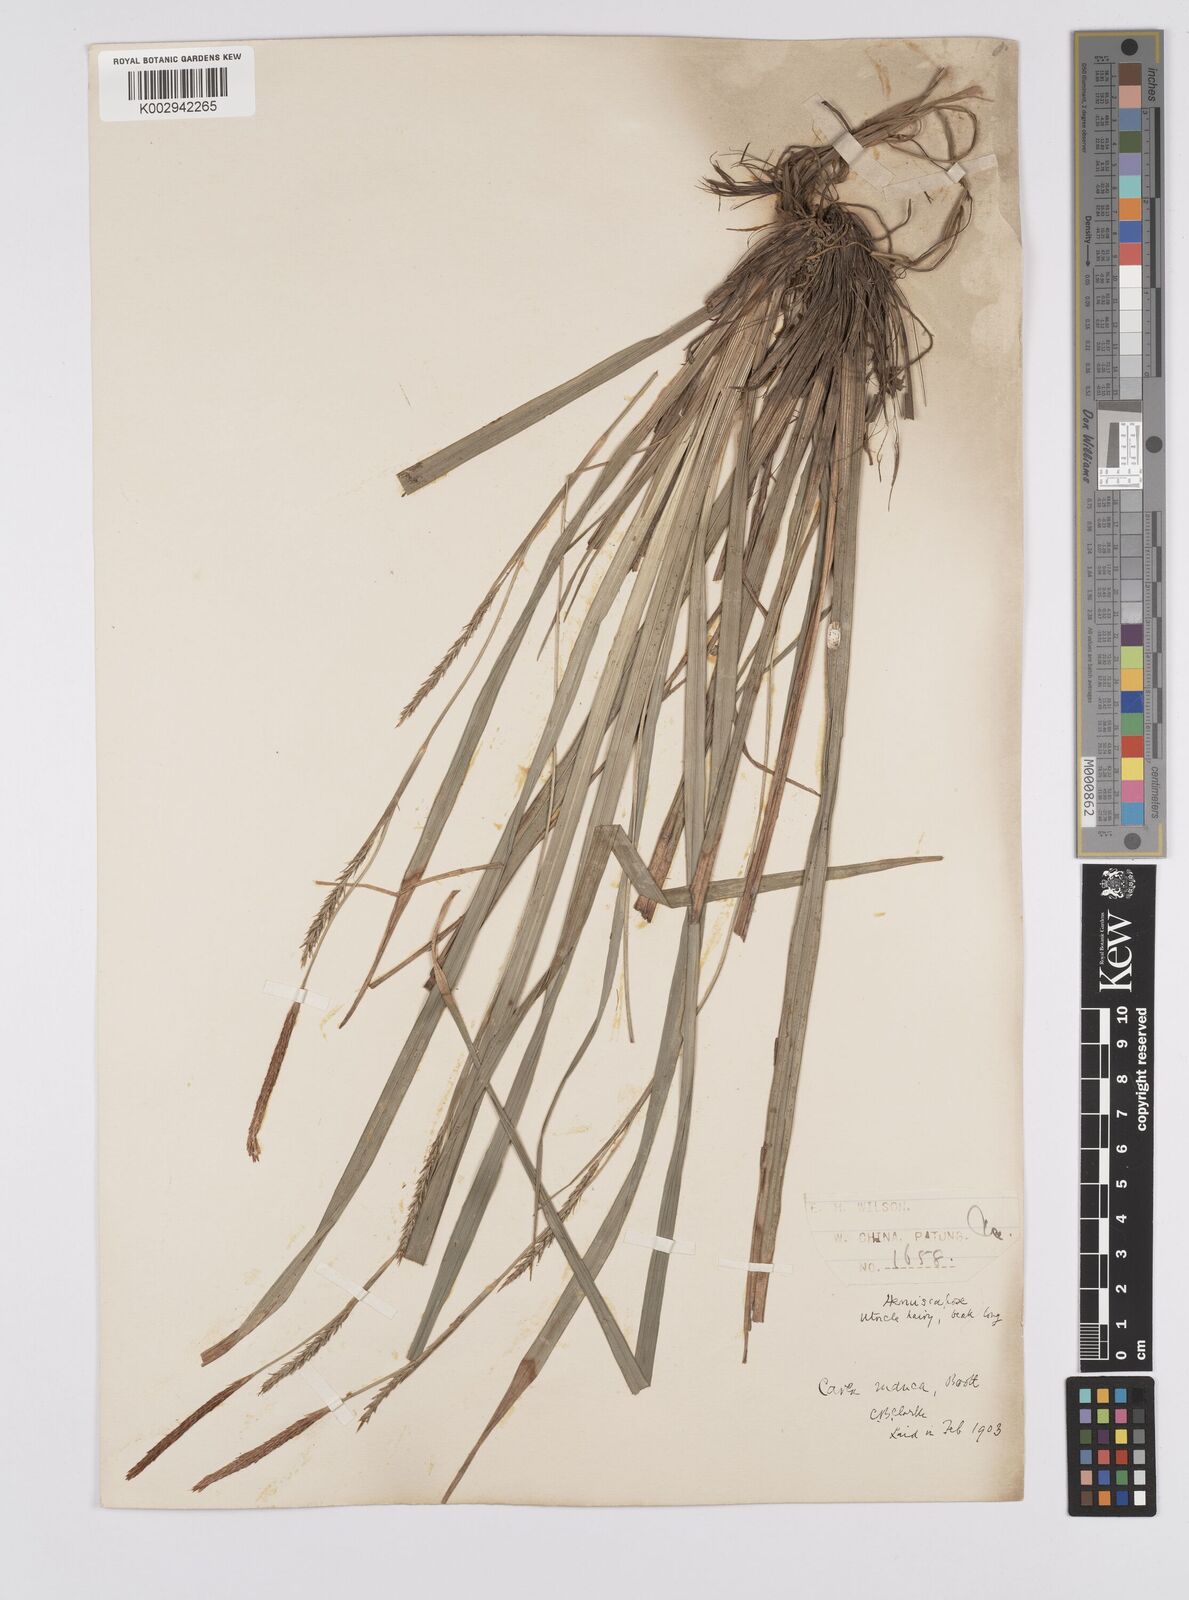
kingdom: Plantae
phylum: Tracheophyta
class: Liliopsida
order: Poales
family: Cyperaceae
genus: Carex
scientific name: Carex manca
